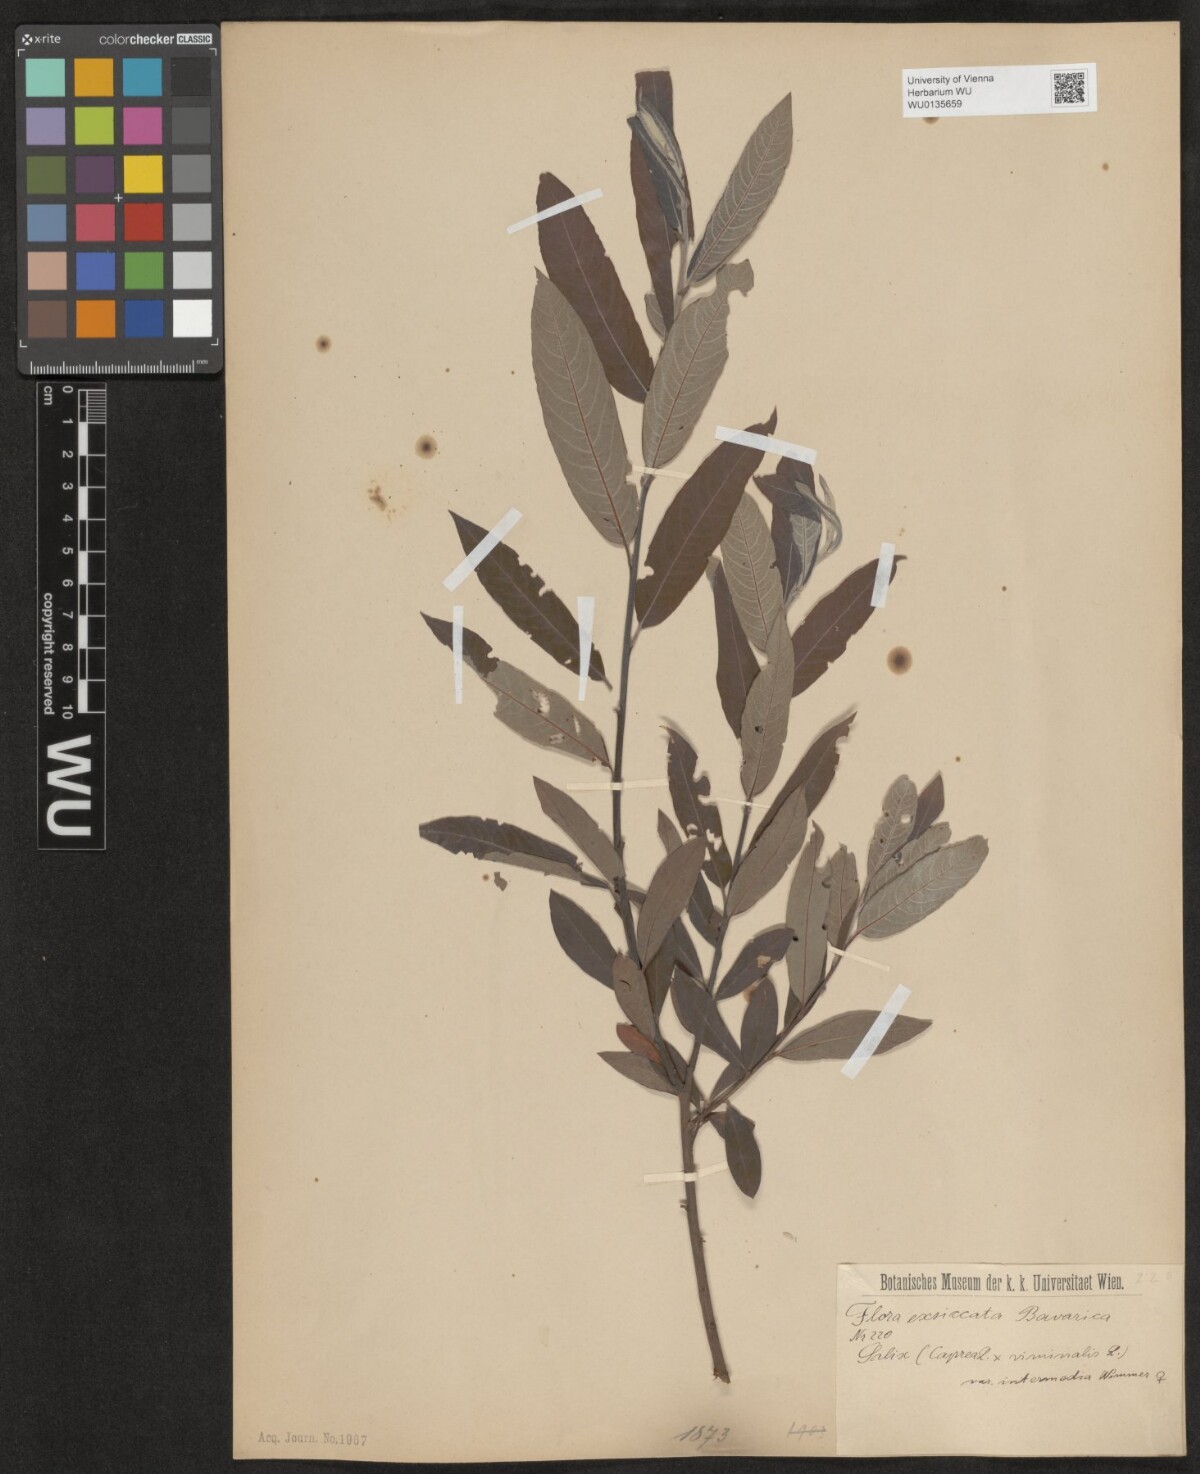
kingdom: Plantae
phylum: Tracheophyta
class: Magnoliopsida
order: Malpighiales
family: Salicaceae
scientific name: Salicaceae
